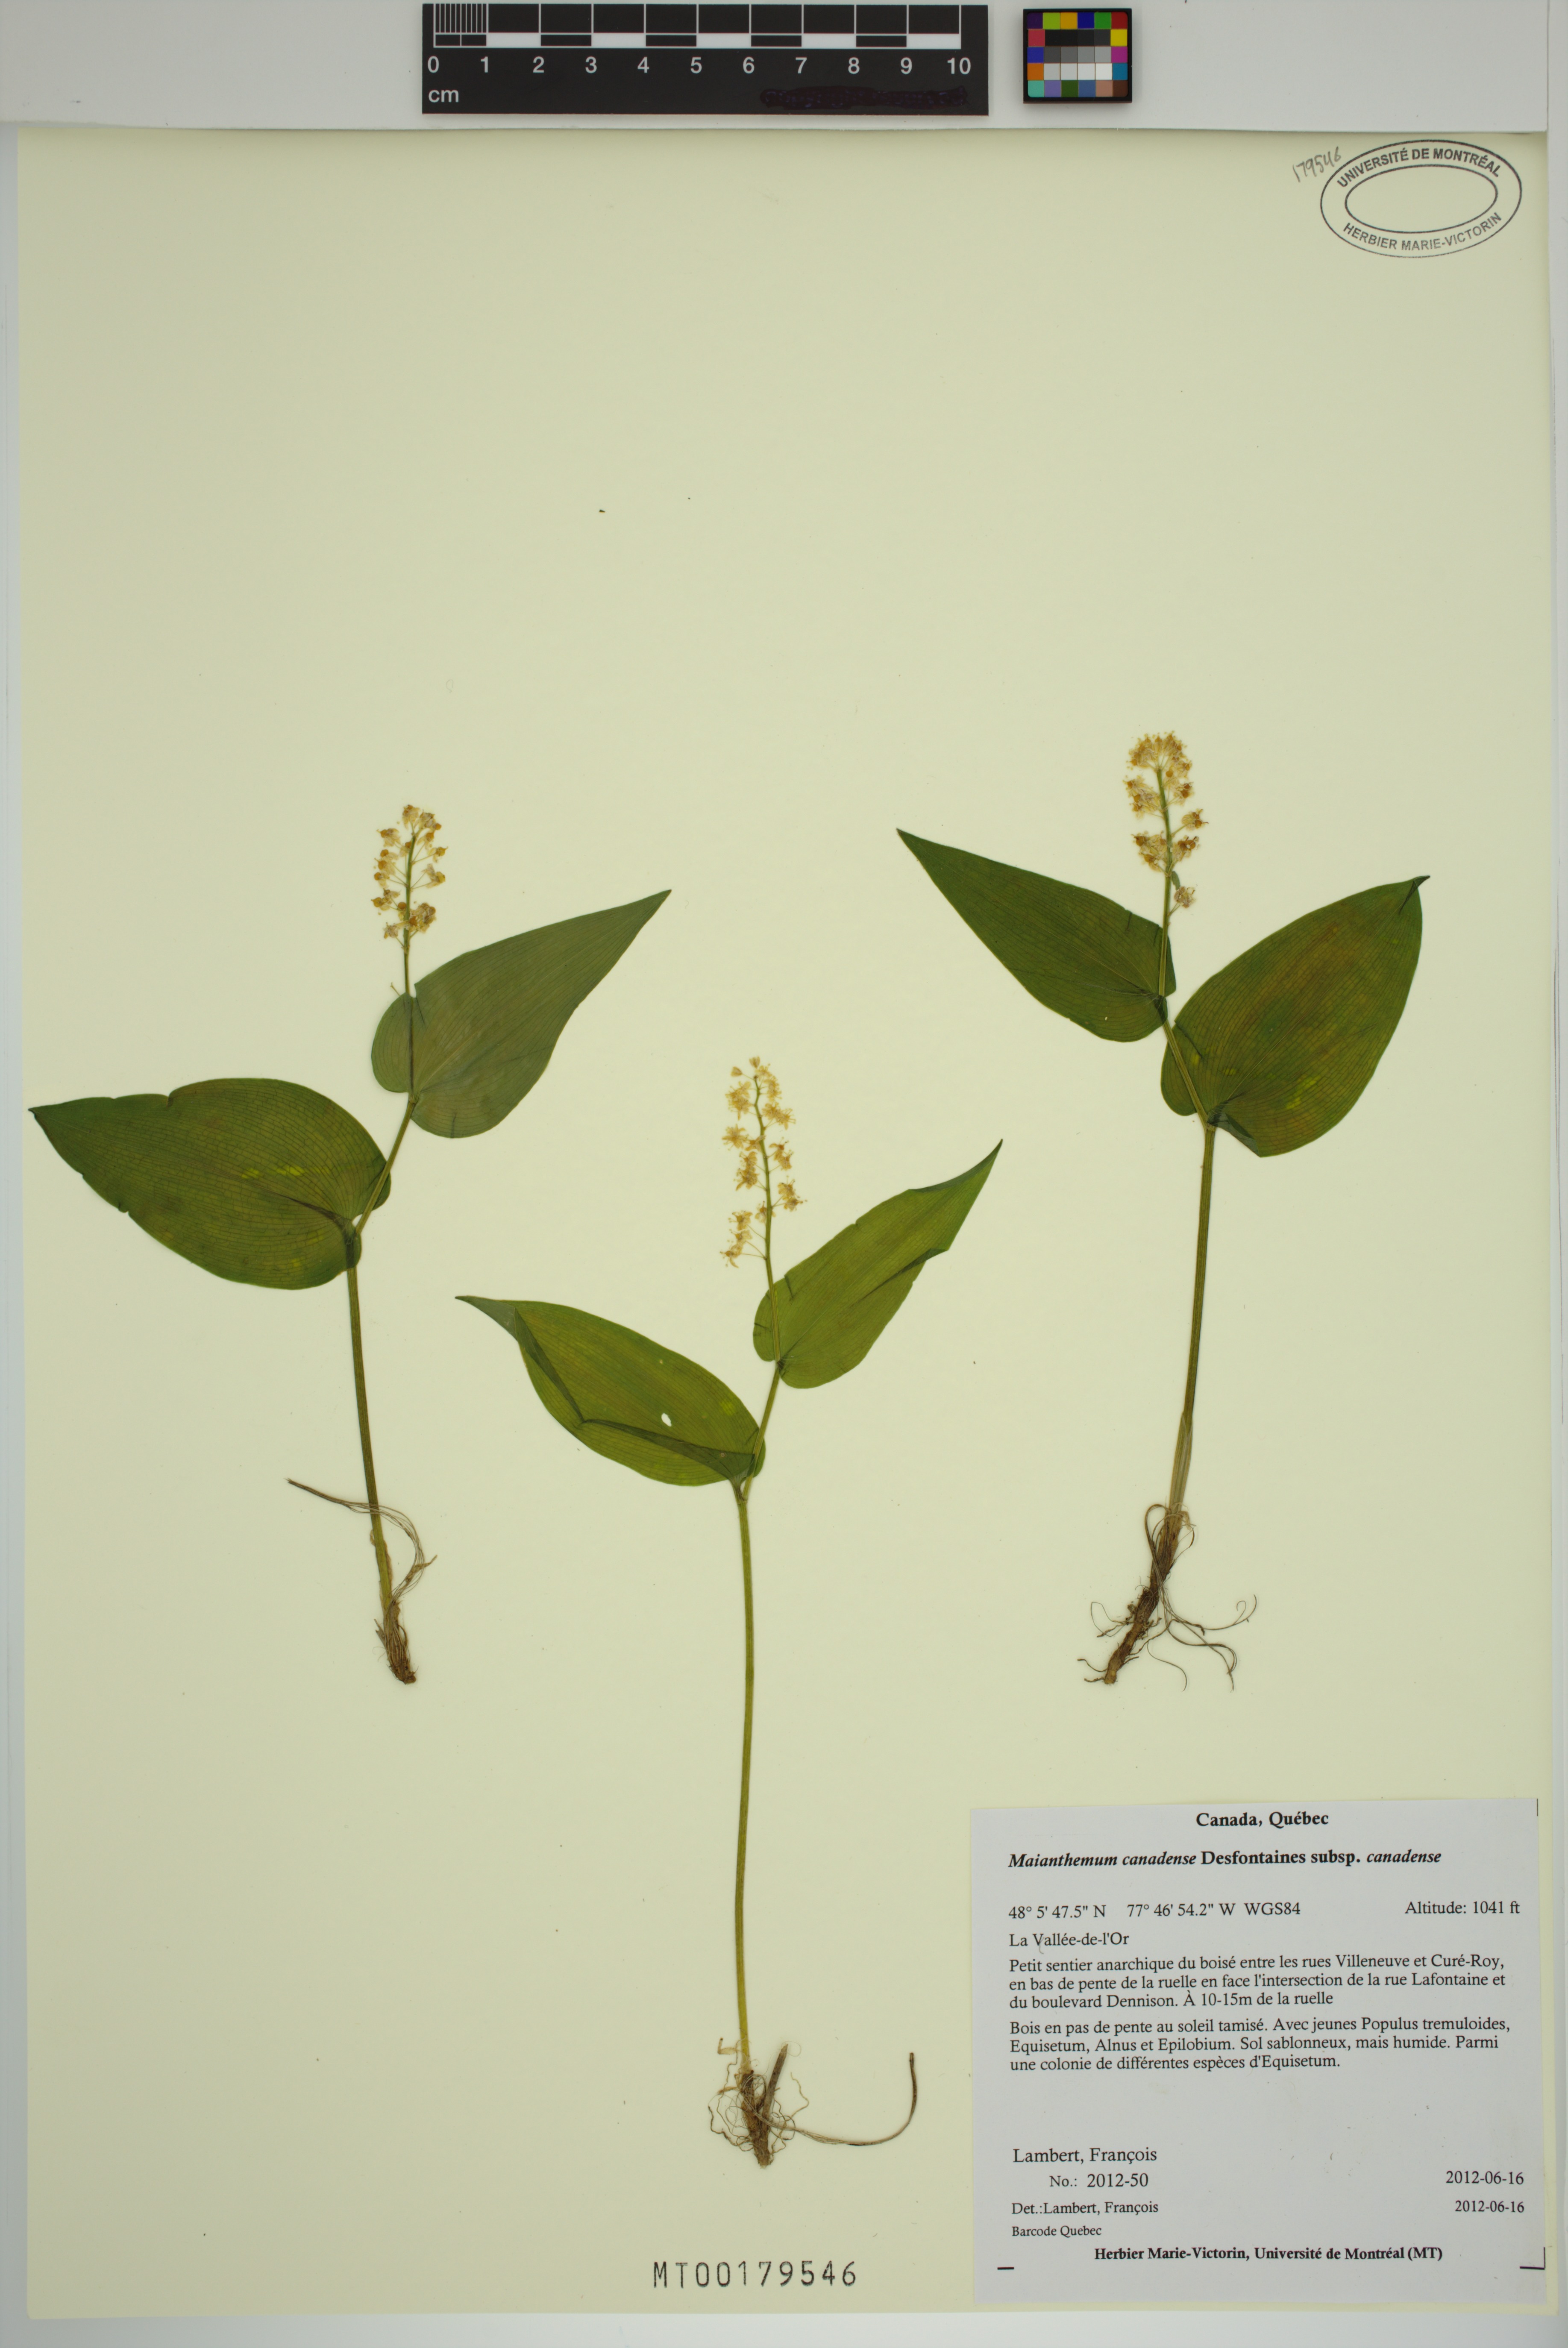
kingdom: Plantae
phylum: Tracheophyta
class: Liliopsida
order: Asparagales
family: Asparagaceae
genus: Maianthemum
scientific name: Maianthemum canadense
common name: False lily-of-the-valley
